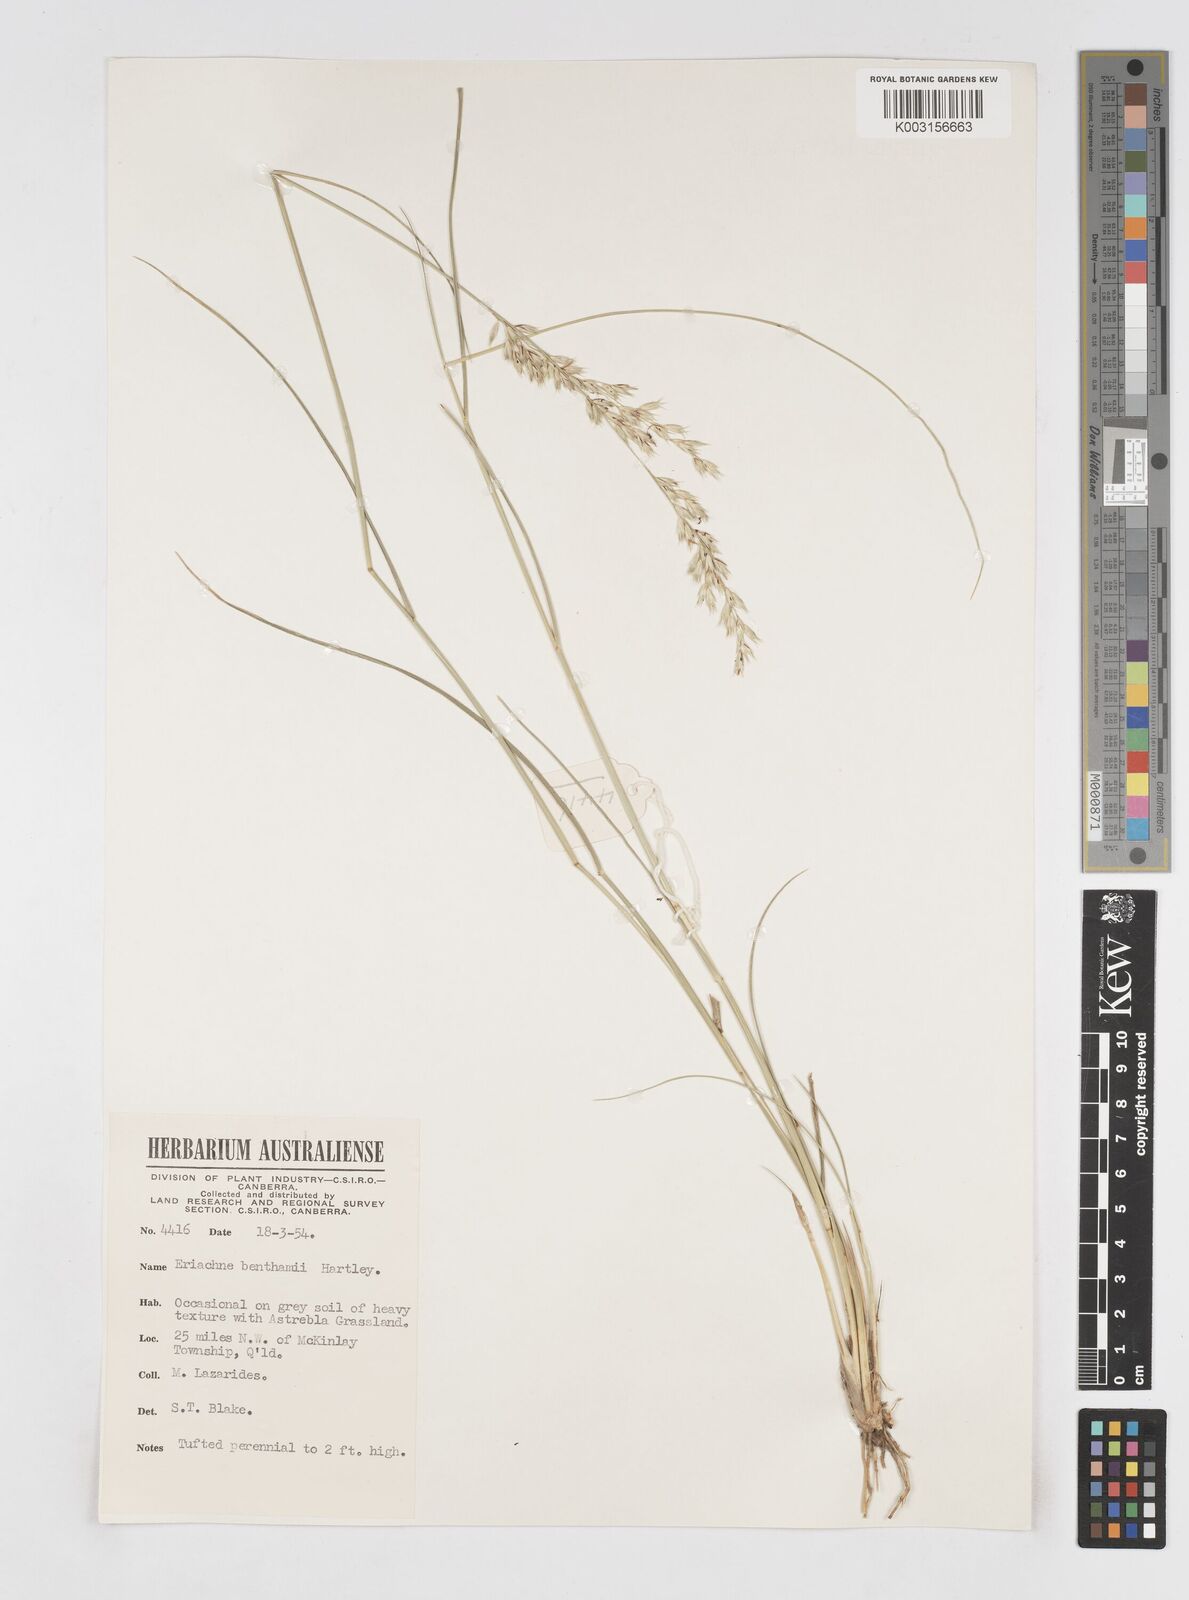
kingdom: Plantae
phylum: Tracheophyta
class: Liliopsida
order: Poales
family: Poaceae
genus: Eriachne
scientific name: Eriachne benthamii
